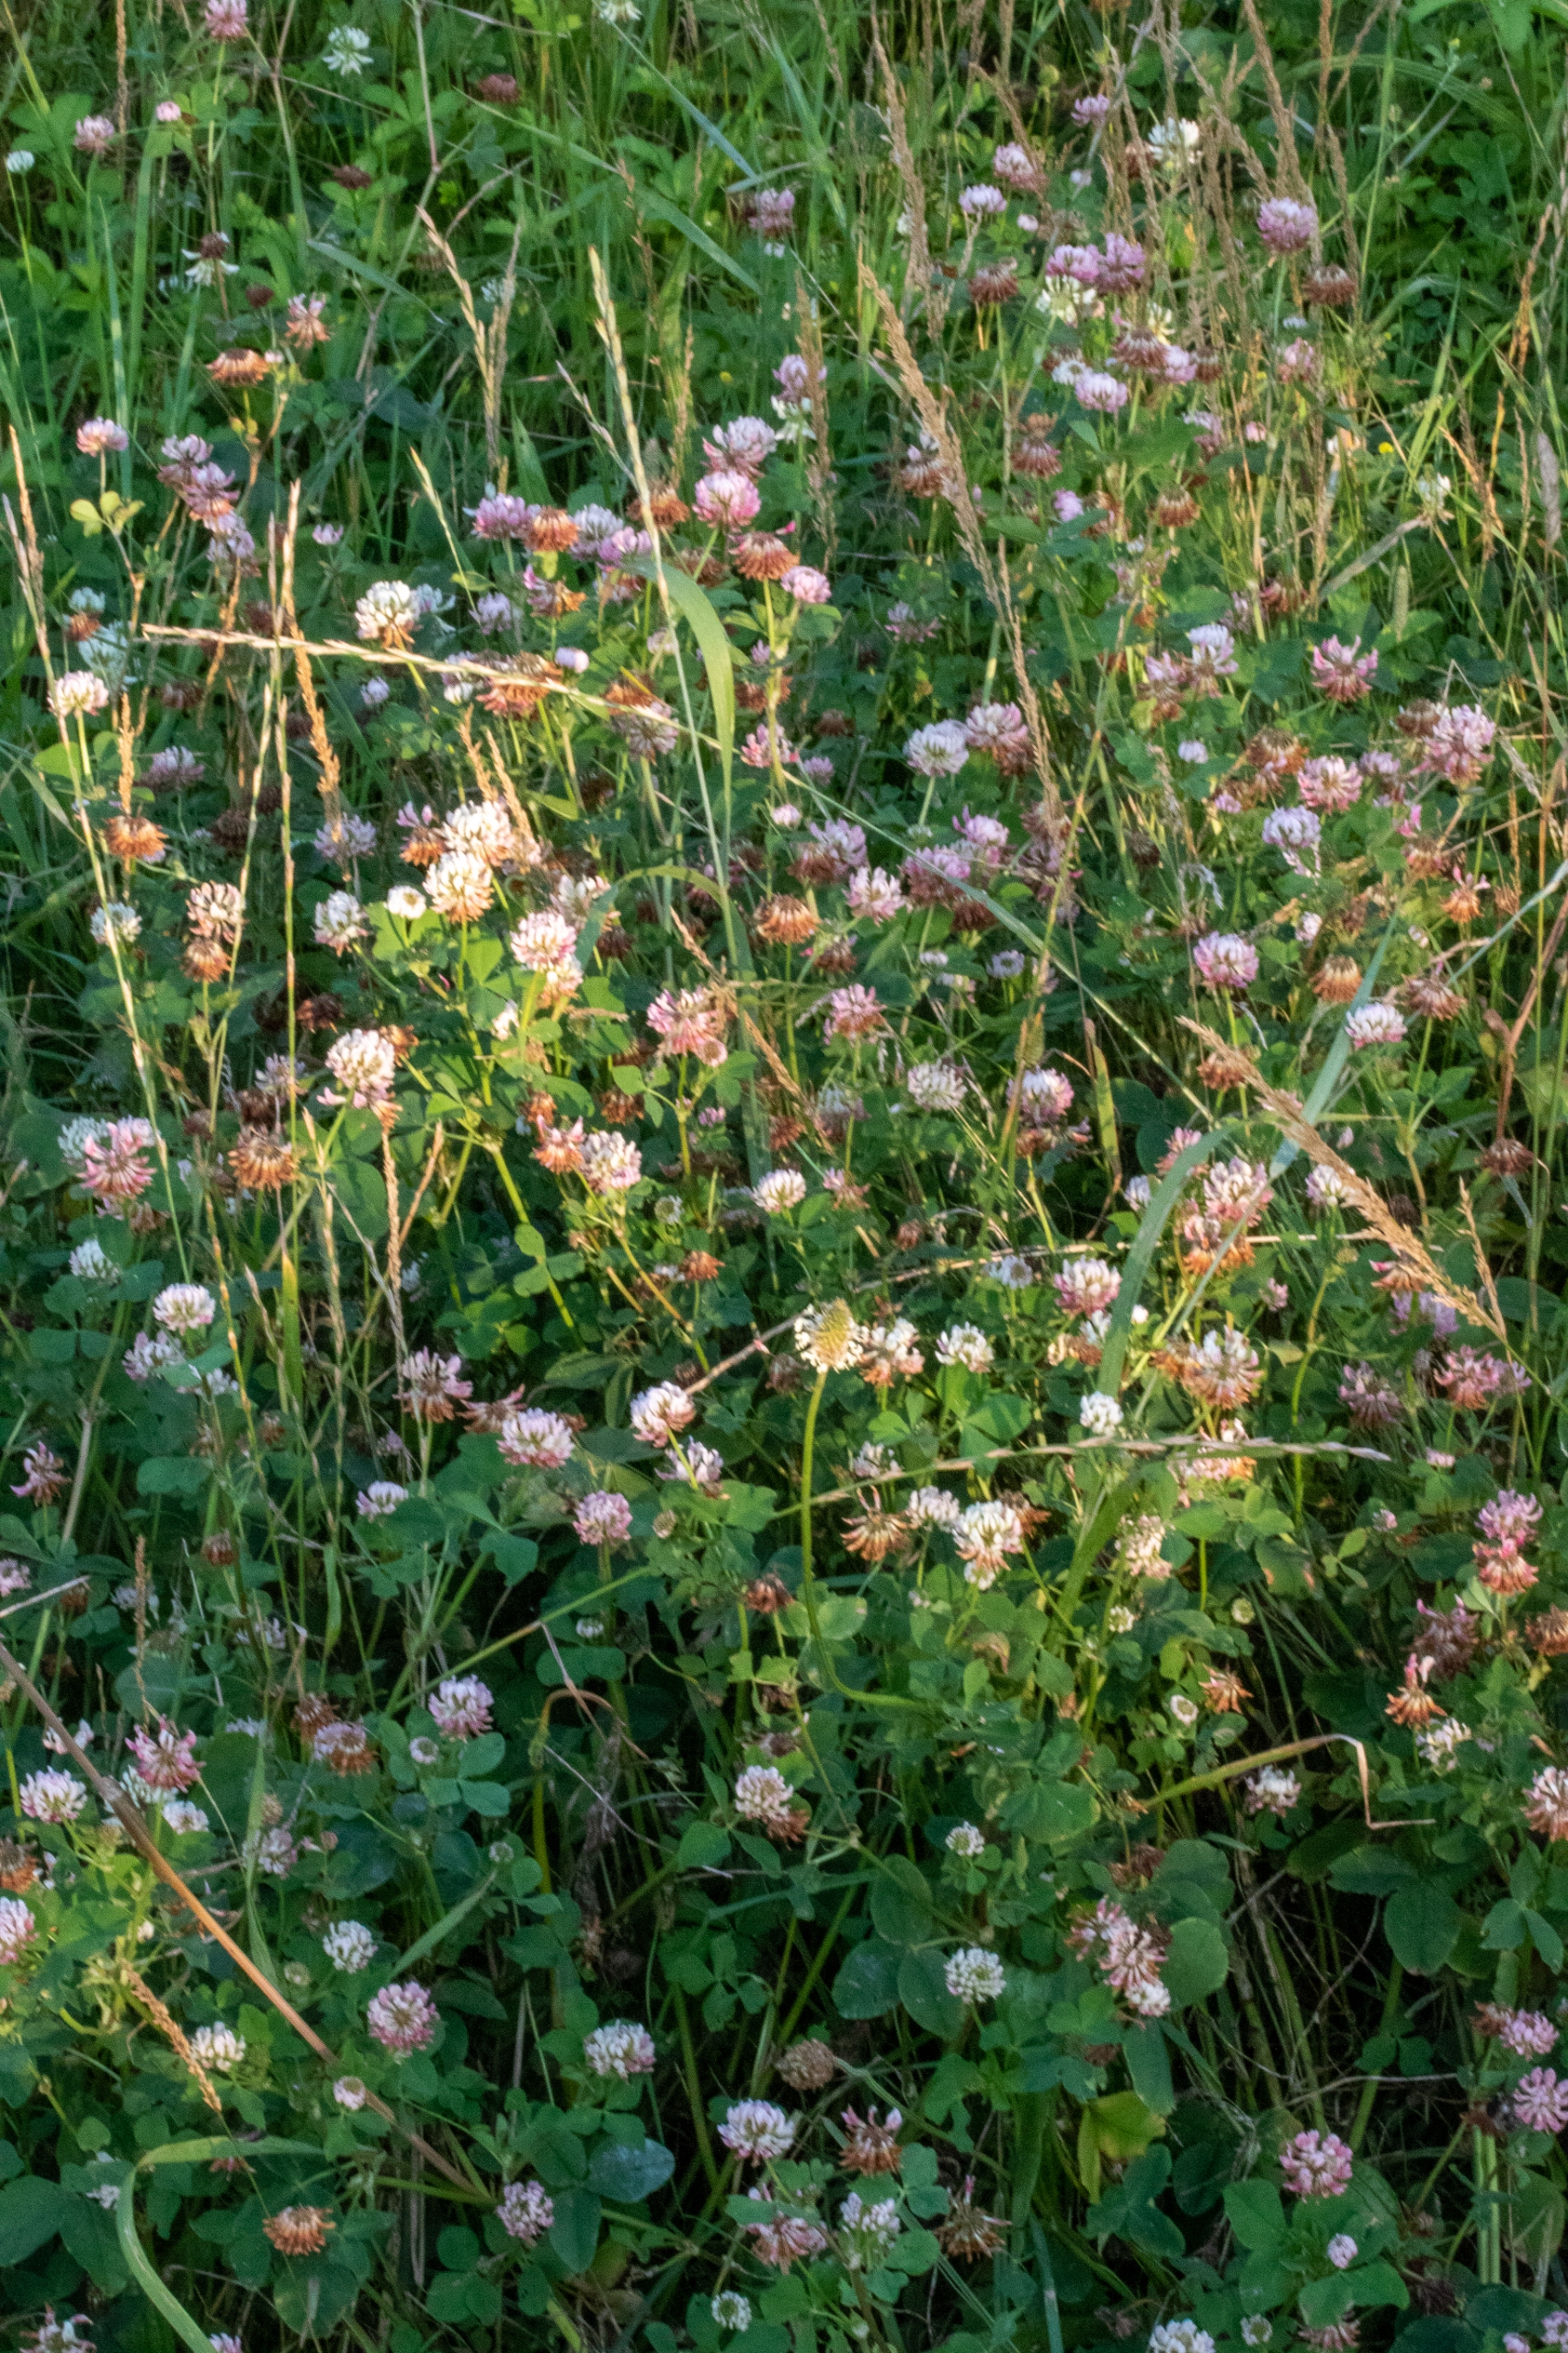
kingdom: Plantae
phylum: Tracheophyta
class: Magnoliopsida
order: Fabales
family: Fabaceae
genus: Trifolium
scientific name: Trifolium hybridum
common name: Alsike-kløver
